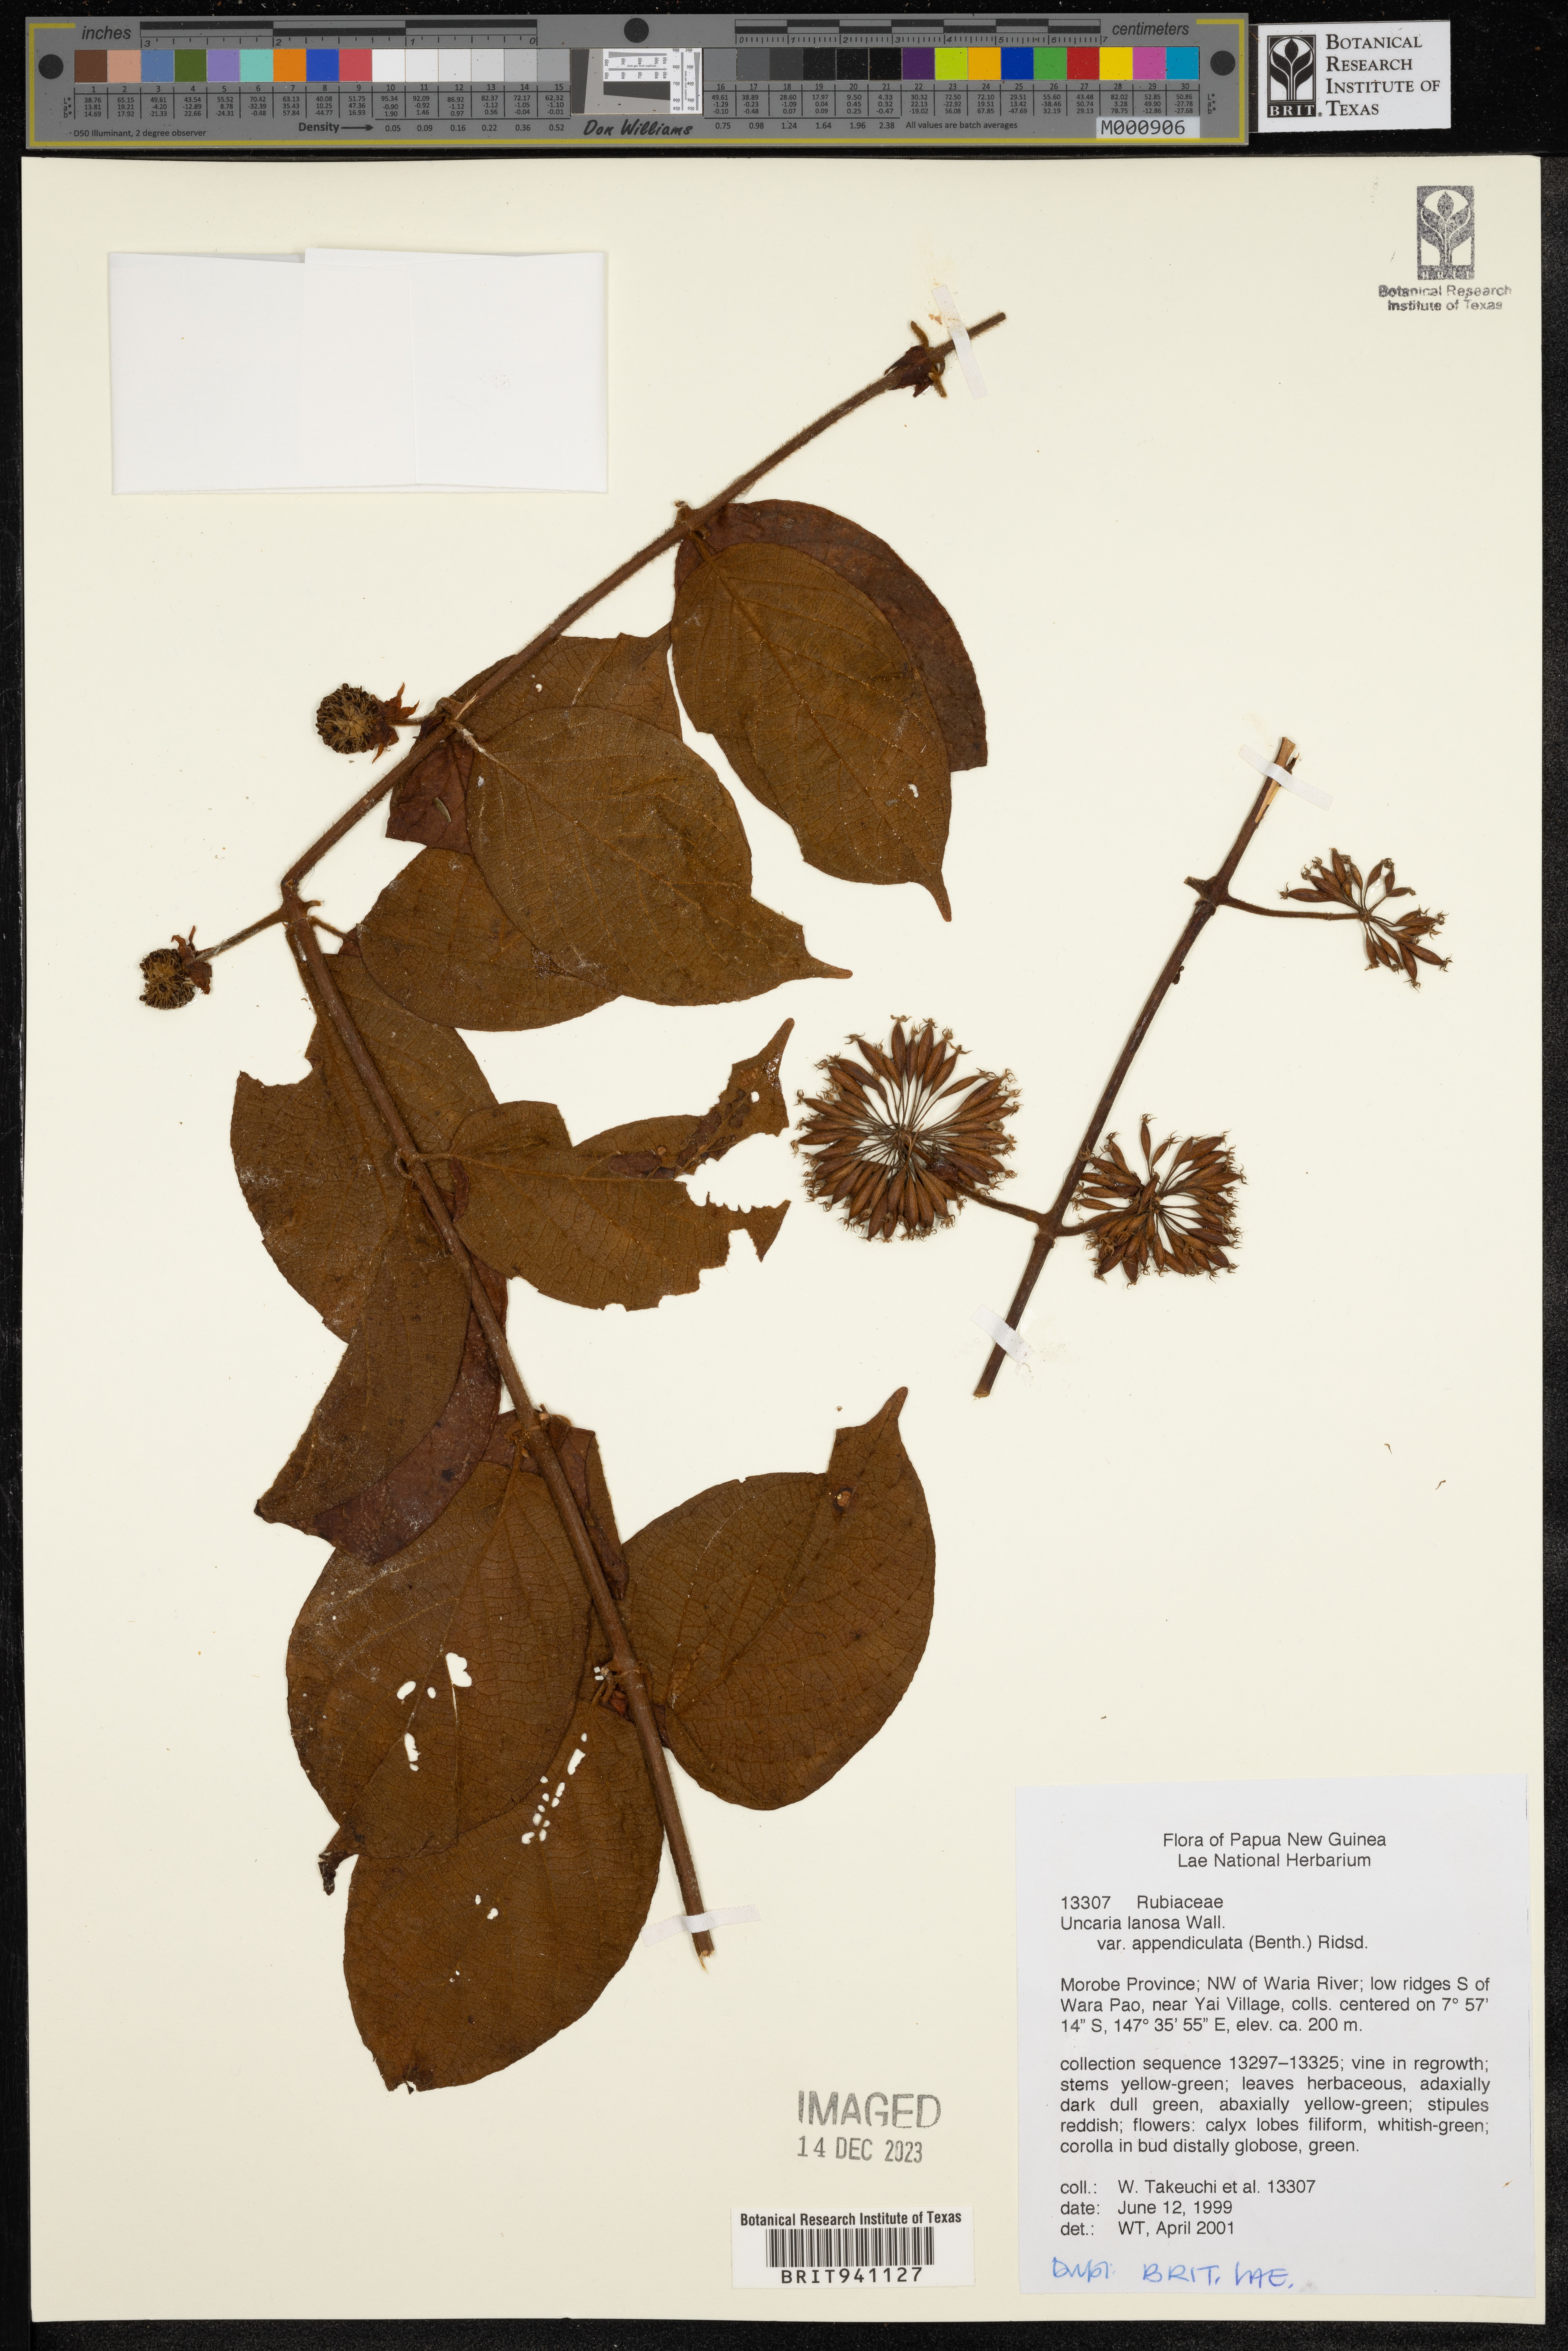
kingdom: Plantae
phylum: Tracheophyta
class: Magnoliopsida
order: Gentianales
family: Rubiaceae
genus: Uncaria
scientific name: Uncaria
